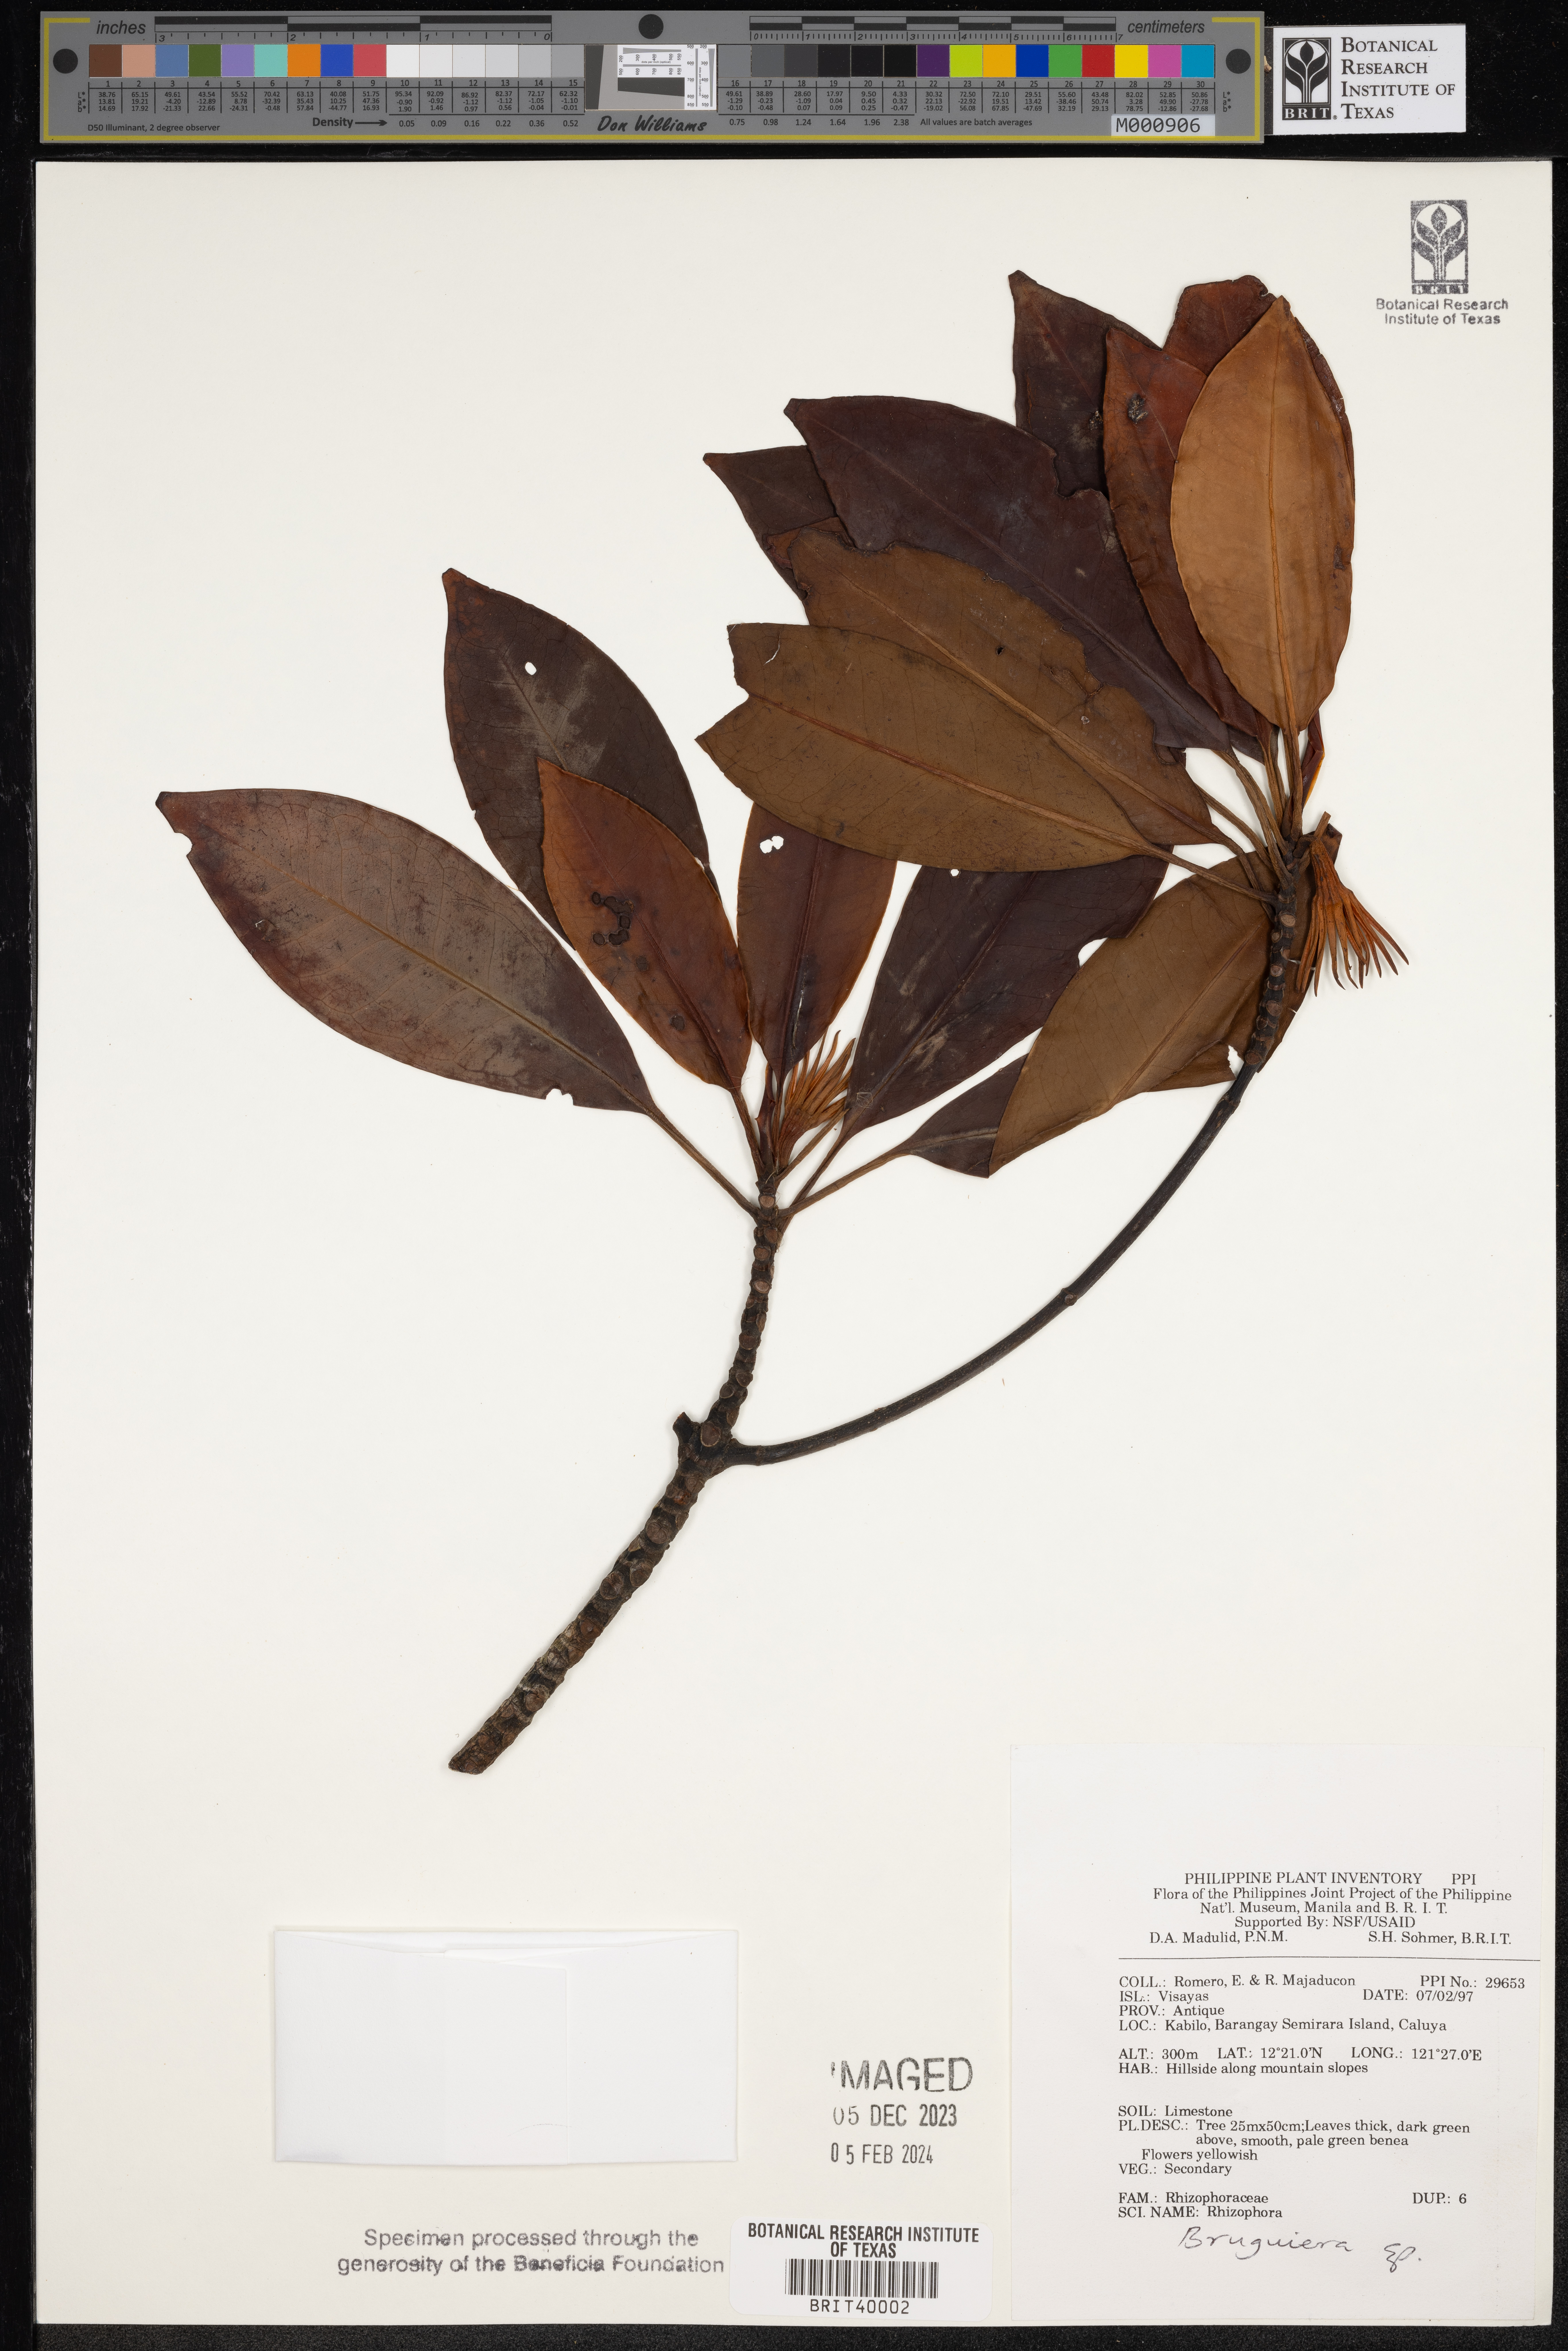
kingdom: Plantae
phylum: Tracheophyta
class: Magnoliopsida
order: Malpighiales
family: Rhizophoraceae
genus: Rhizophora
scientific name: Rhizophora
